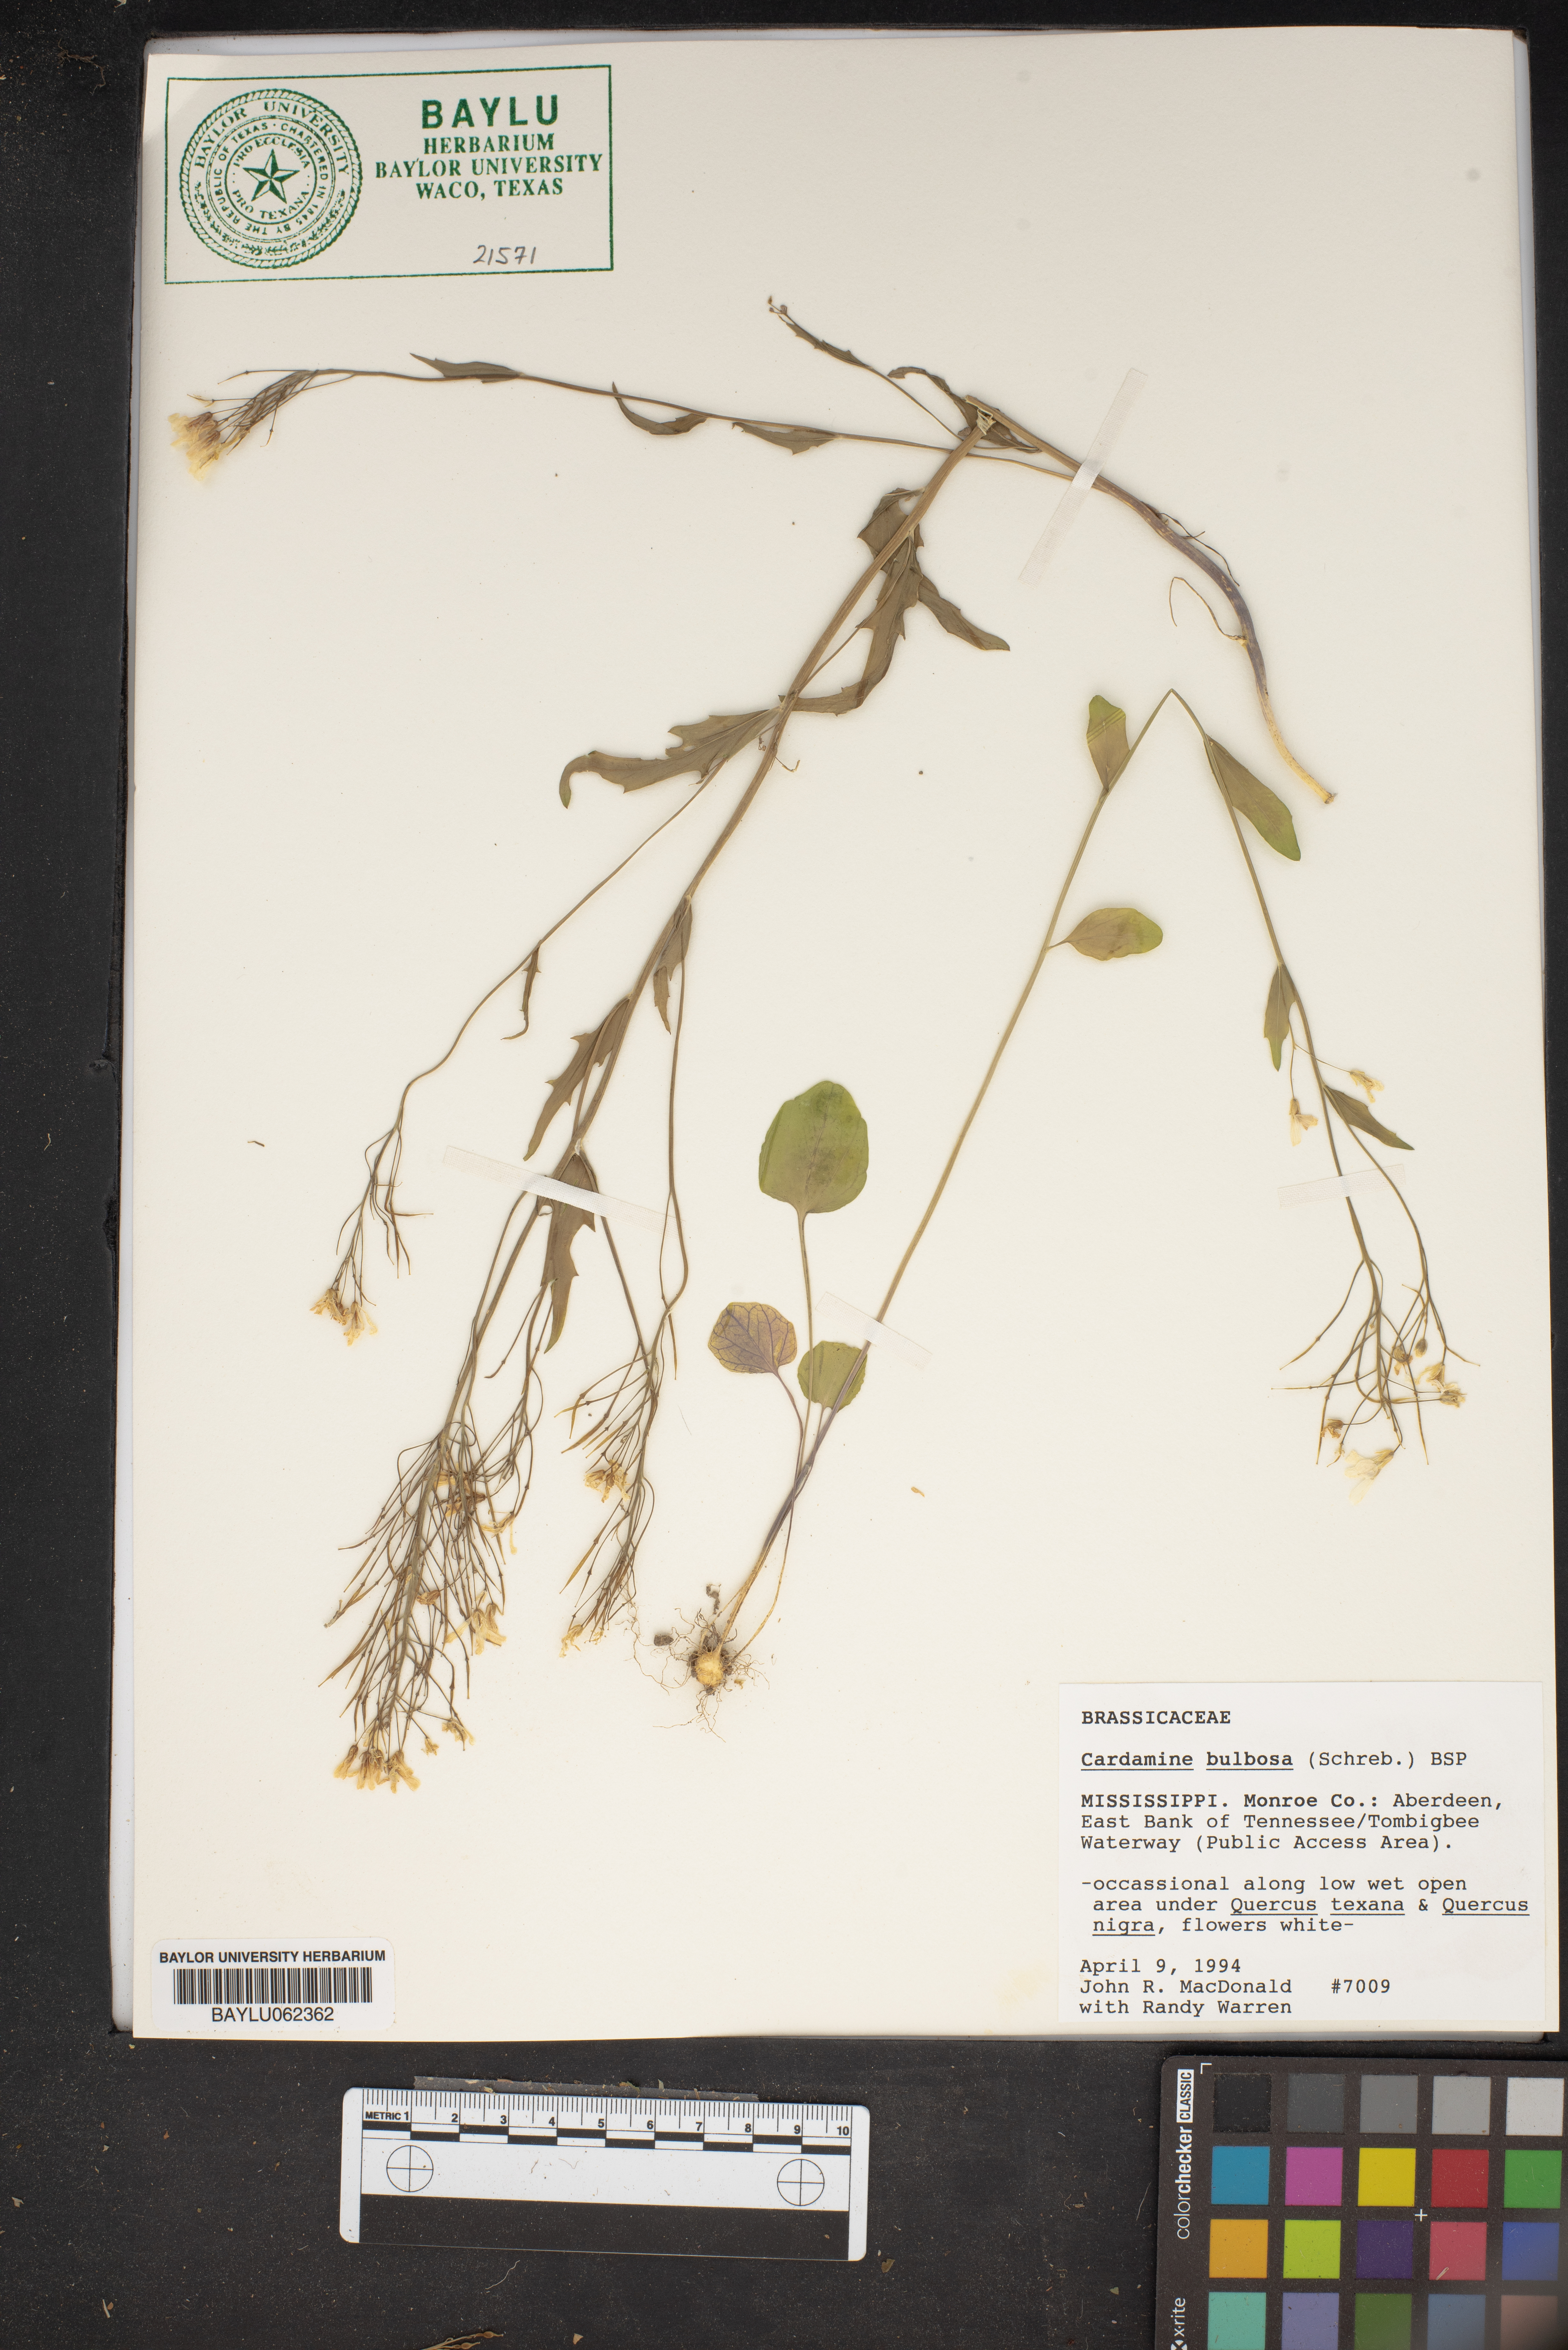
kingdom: Plantae
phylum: Tracheophyta
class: Magnoliopsida
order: Brassicales
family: Brassicaceae
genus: Cardamine
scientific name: Cardamine bulbosa
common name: Spring cress
